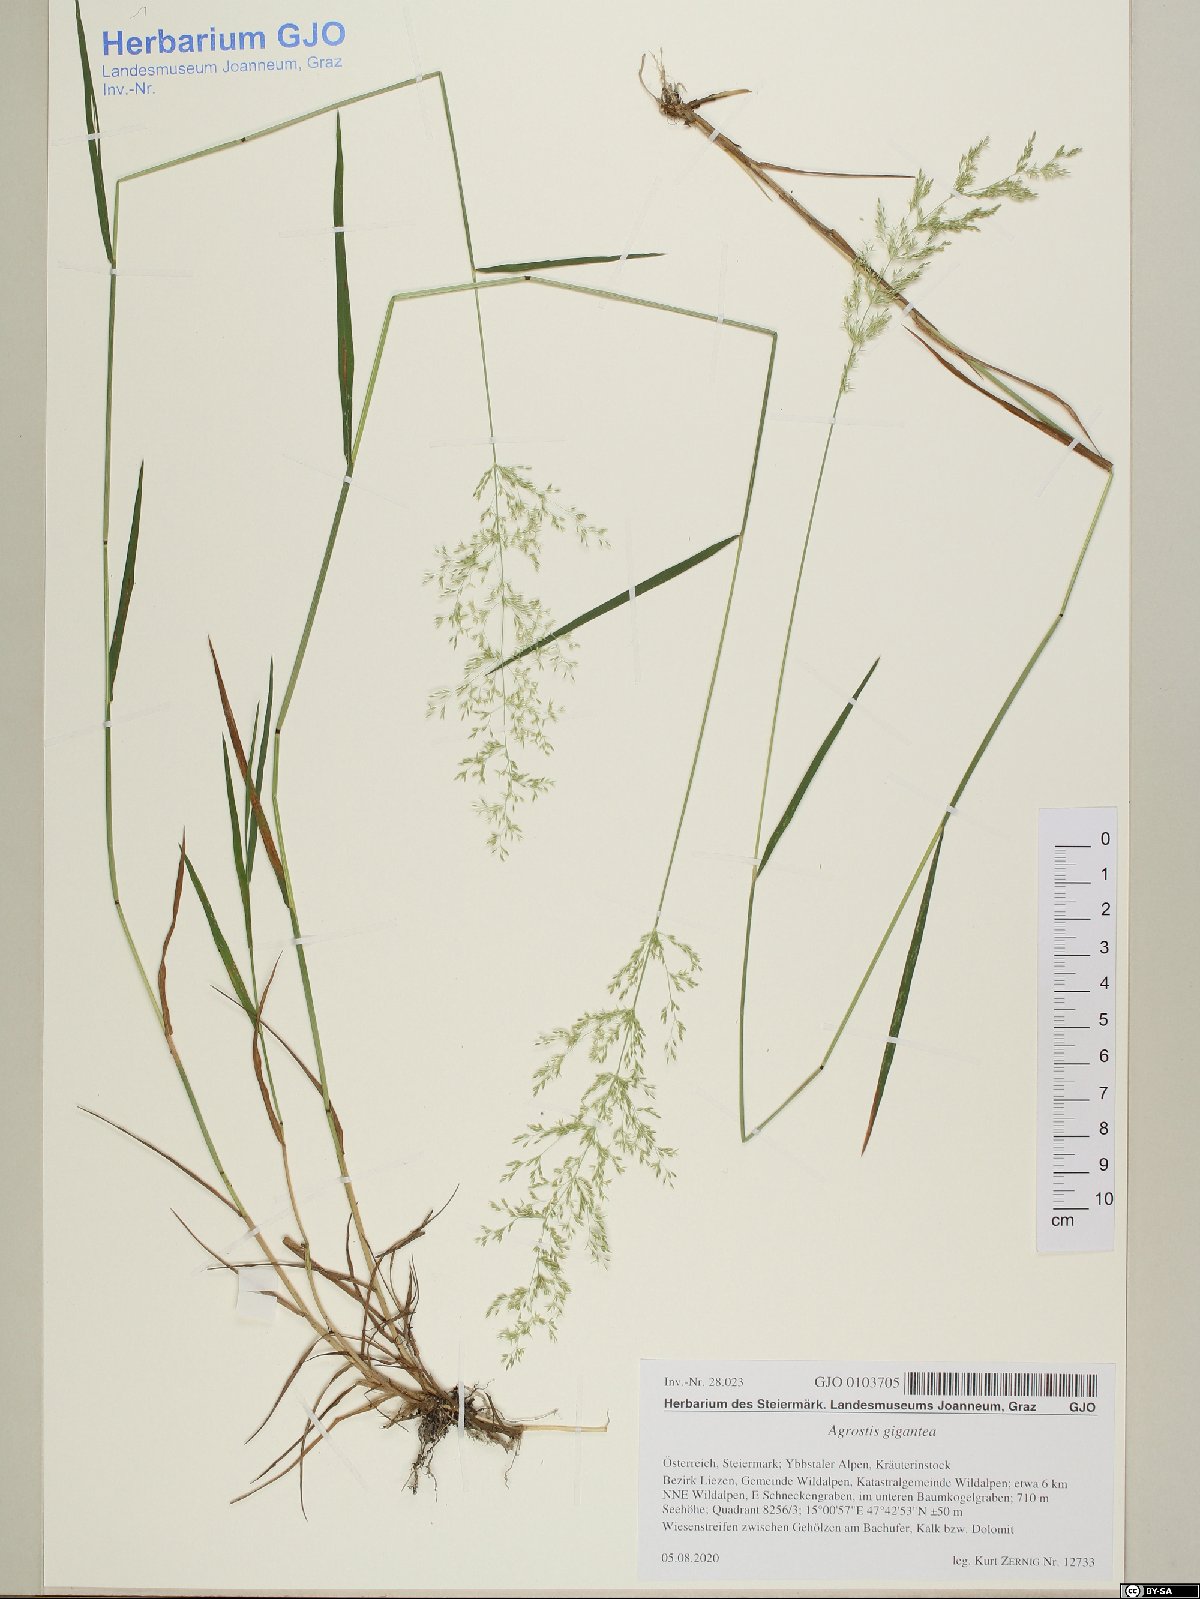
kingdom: Plantae
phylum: Tracheophyta
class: Liliopsida
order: Poales
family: Poaceae
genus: Agrostis
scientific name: Agrostis gigantea
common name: Black bent
